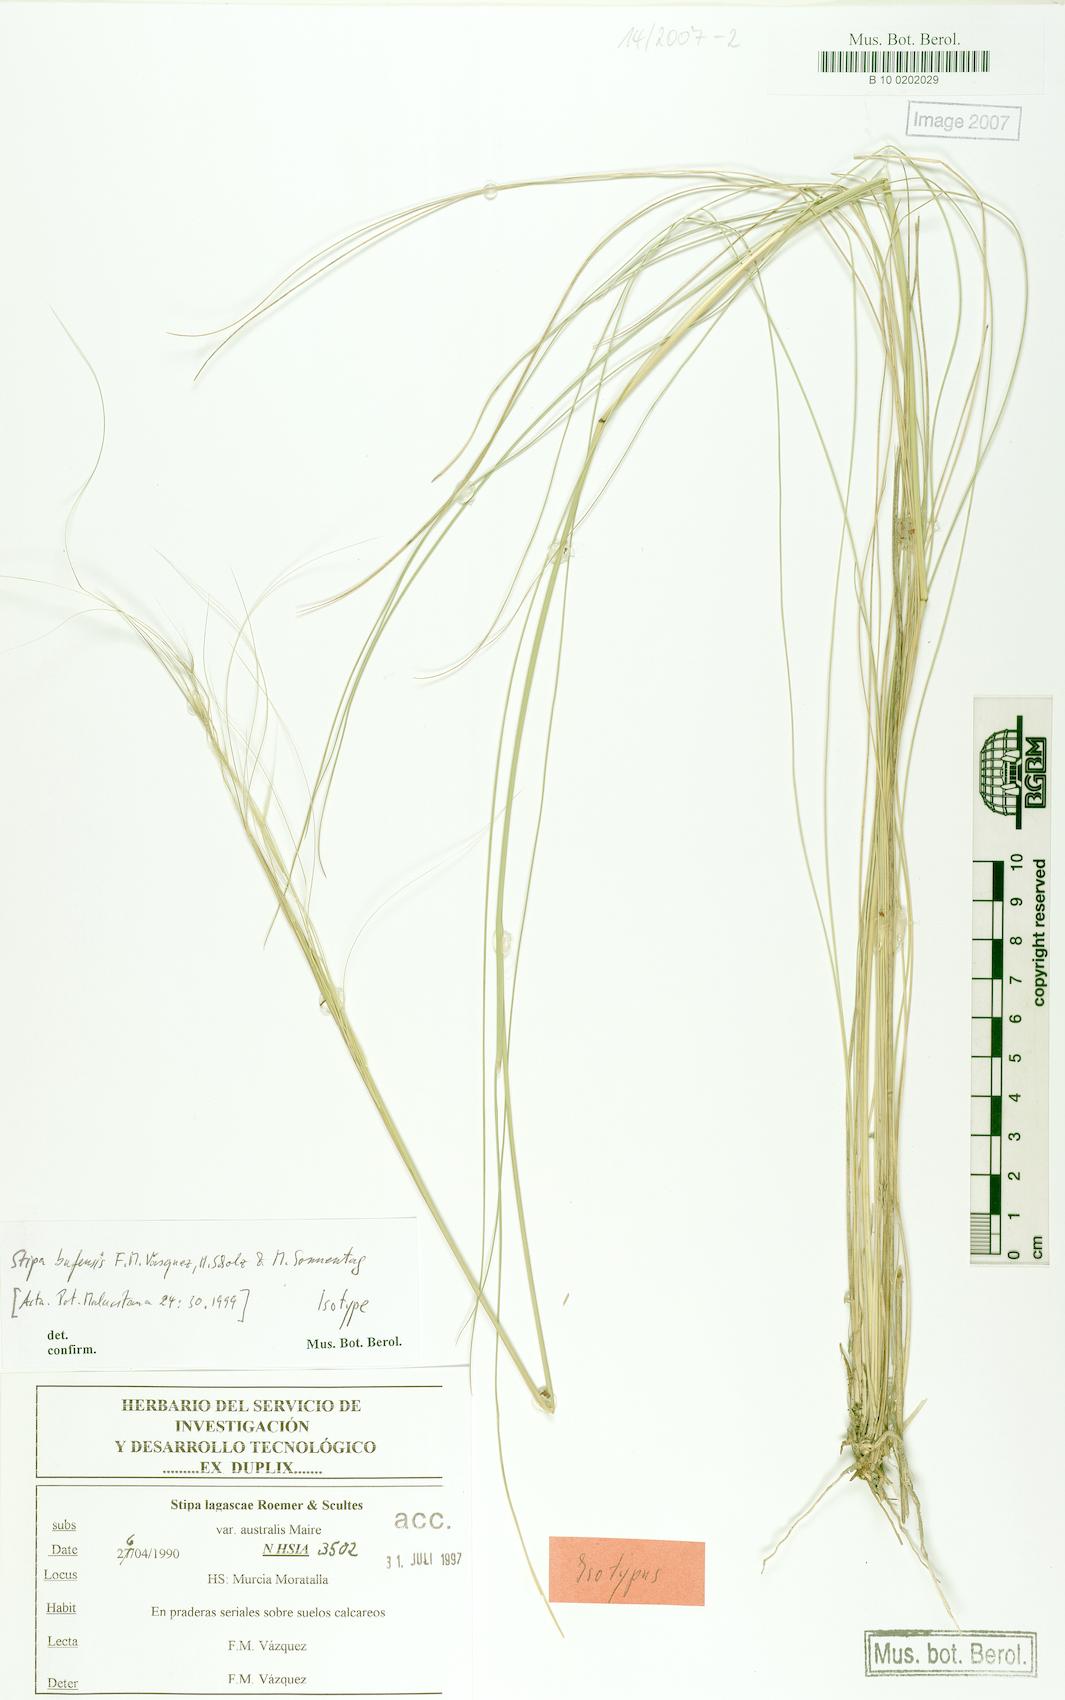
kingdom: Plantae
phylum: Tracheophyta
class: Liliopsida
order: Poales
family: Poaceae
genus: Stipa
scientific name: Stipa lagascae
